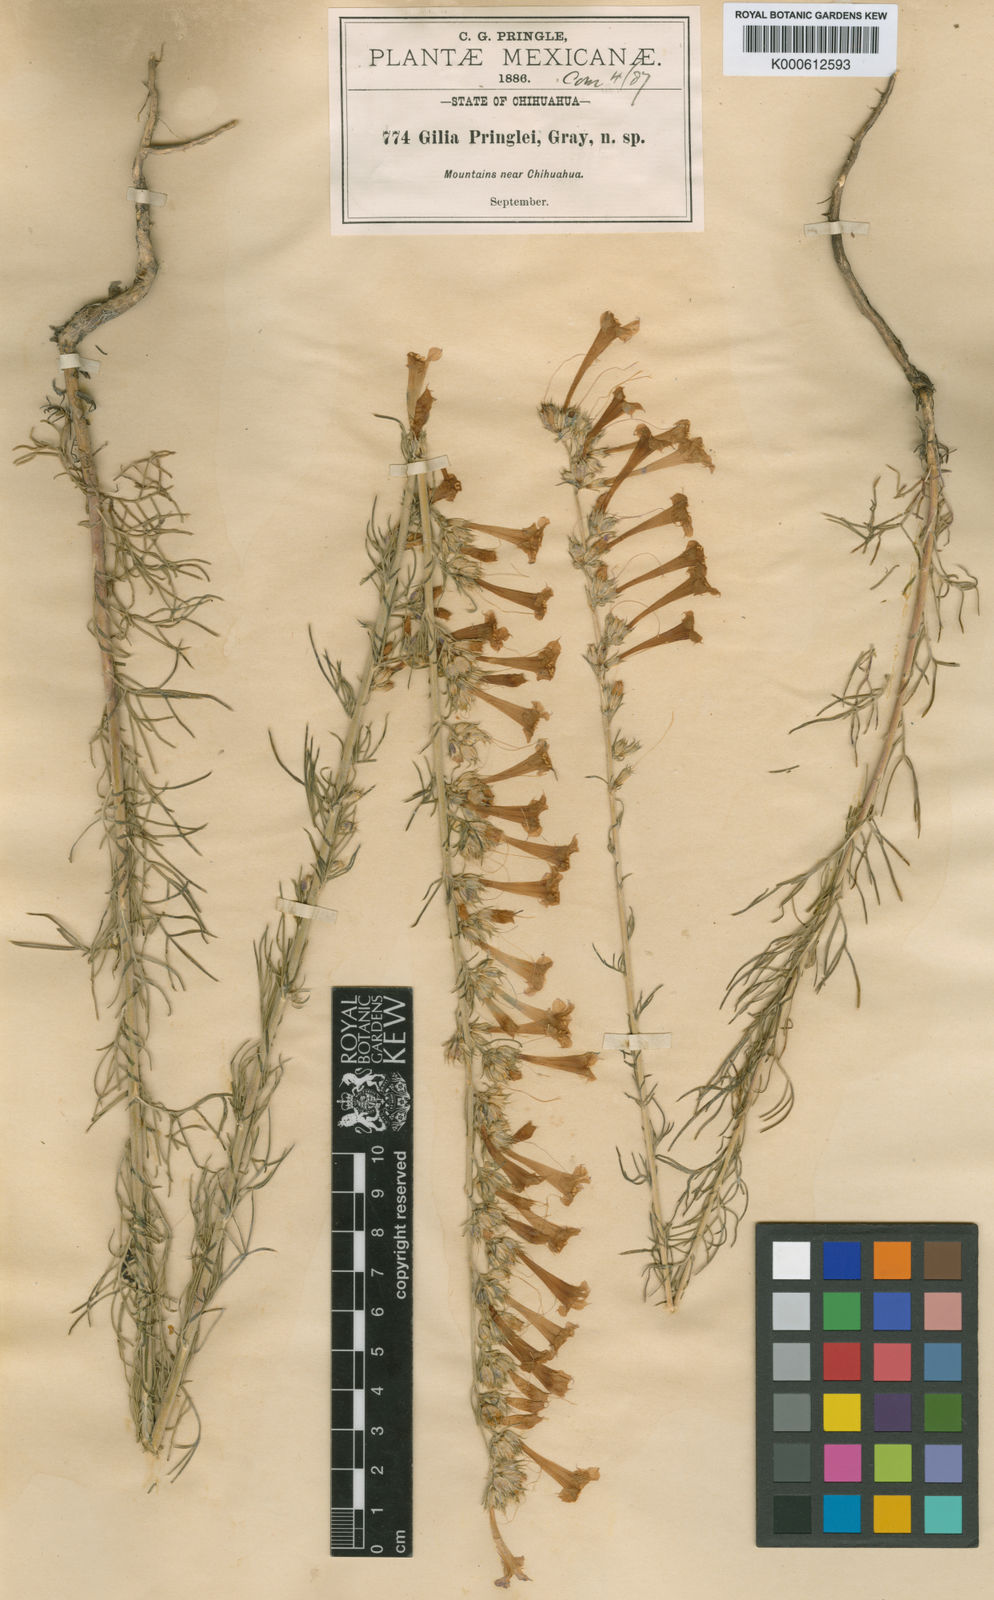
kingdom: Plantae
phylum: Tracheophyta
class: Magnoliopsida
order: Ericales
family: Polemoniaceae
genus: Ipomopsis
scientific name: Ipomopsis macombii
